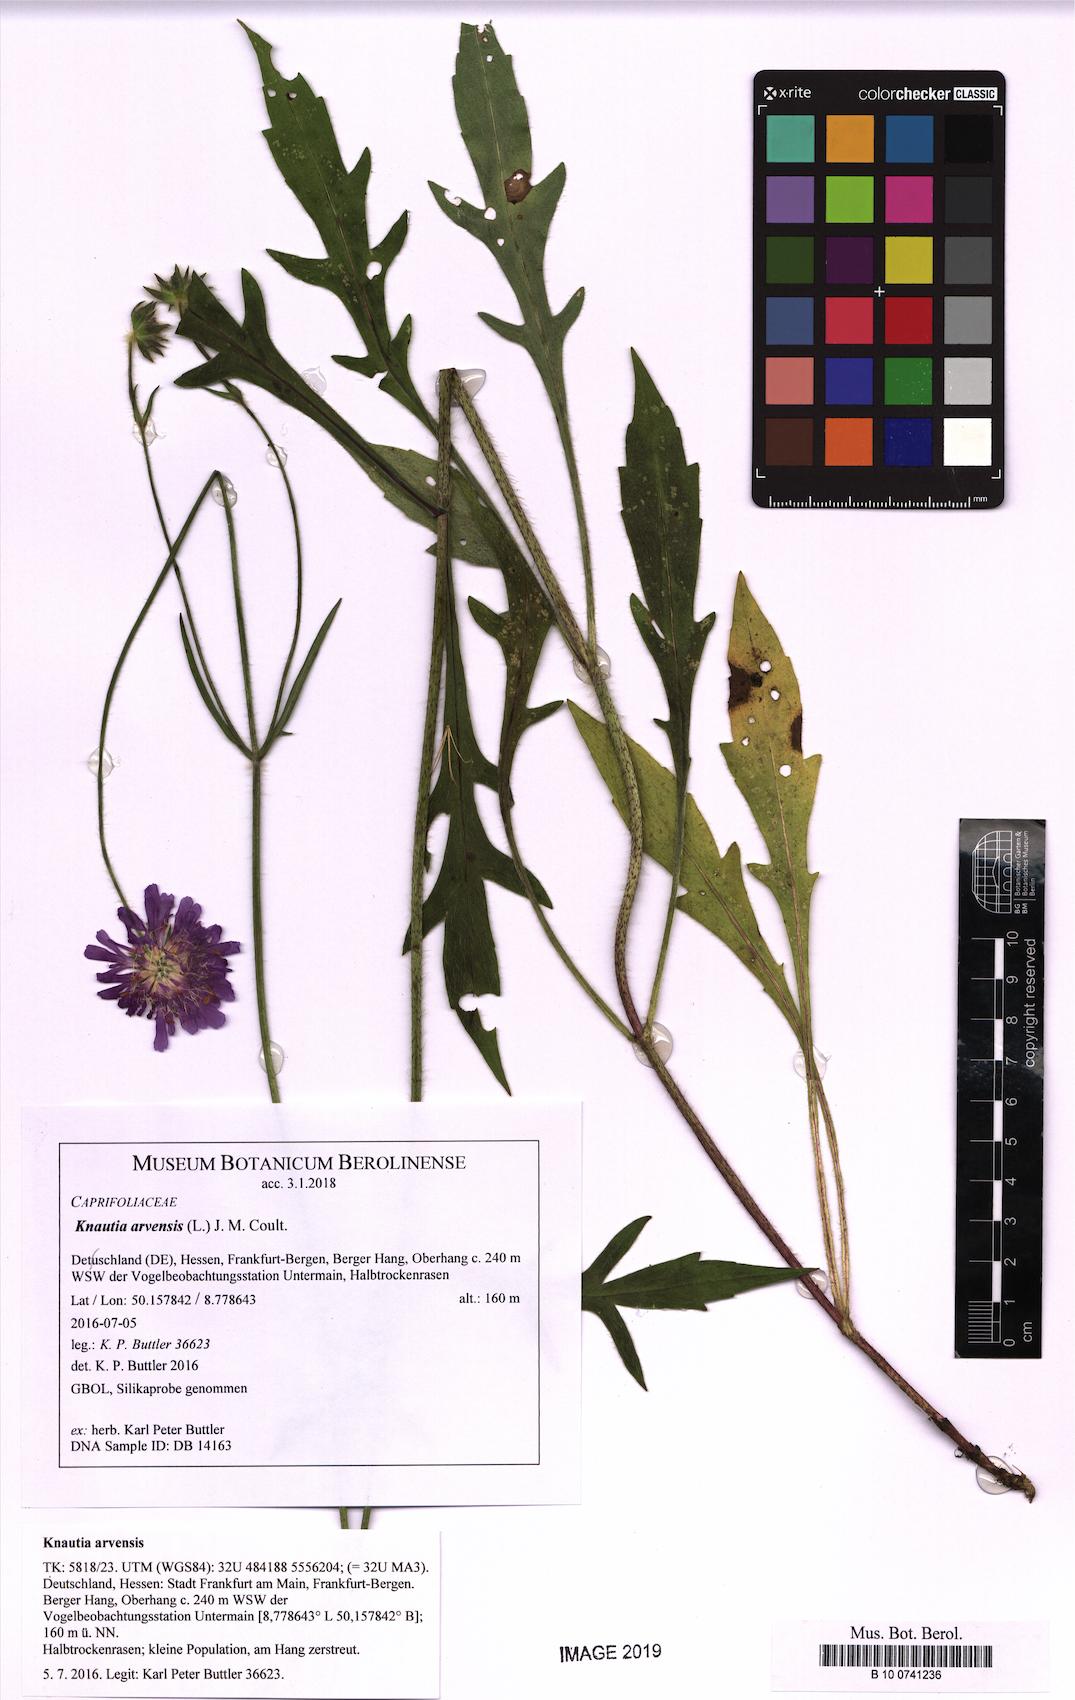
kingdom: Plantae
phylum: Tracheophyta
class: Magnoliopsida
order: Dipsacales
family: Caprifoliaceae
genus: Knautia
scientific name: Knautia arvensis
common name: Field scabiosa
